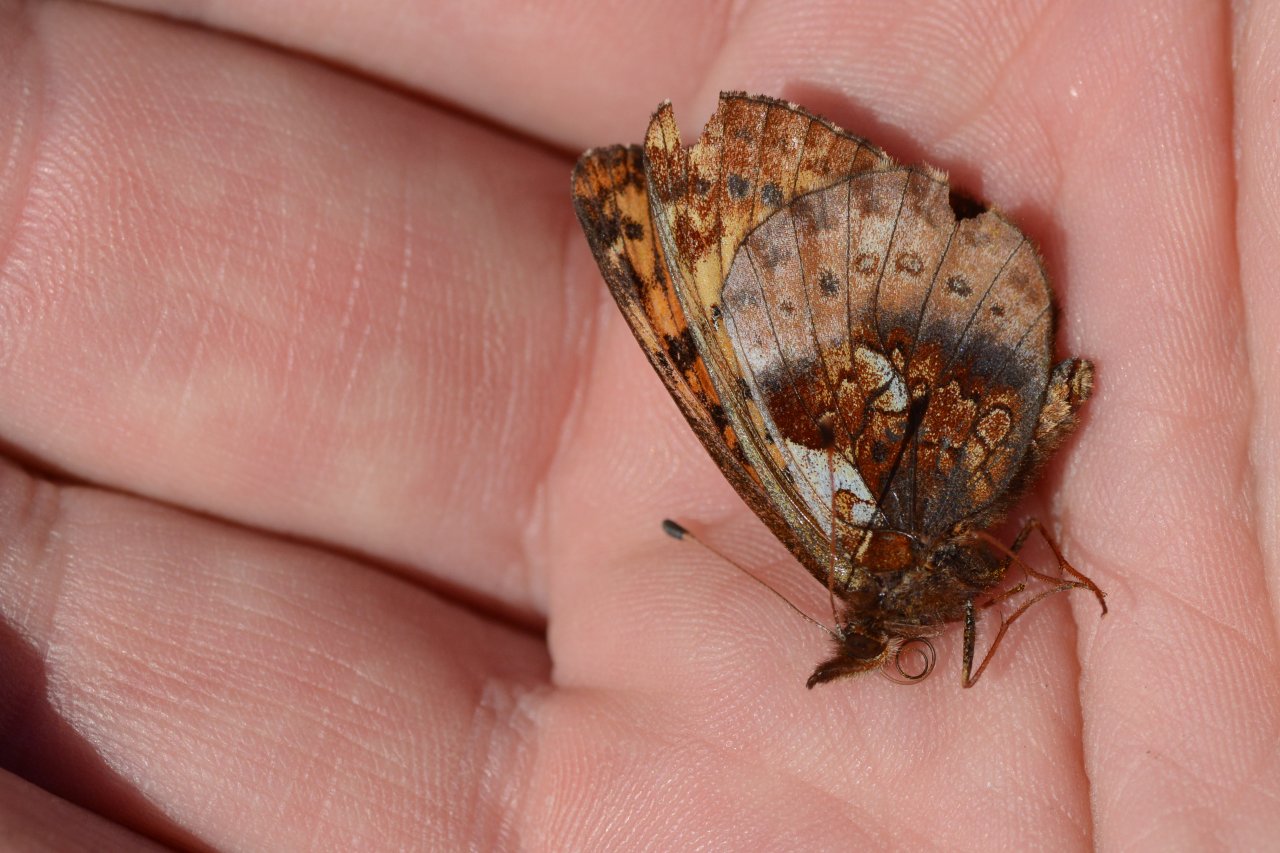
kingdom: Animalia
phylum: Arthropoda
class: Insecta
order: Lepidoptera
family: Nymphalidae
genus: Boloria
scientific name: Boloria frigga
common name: Frigga Fritillary
